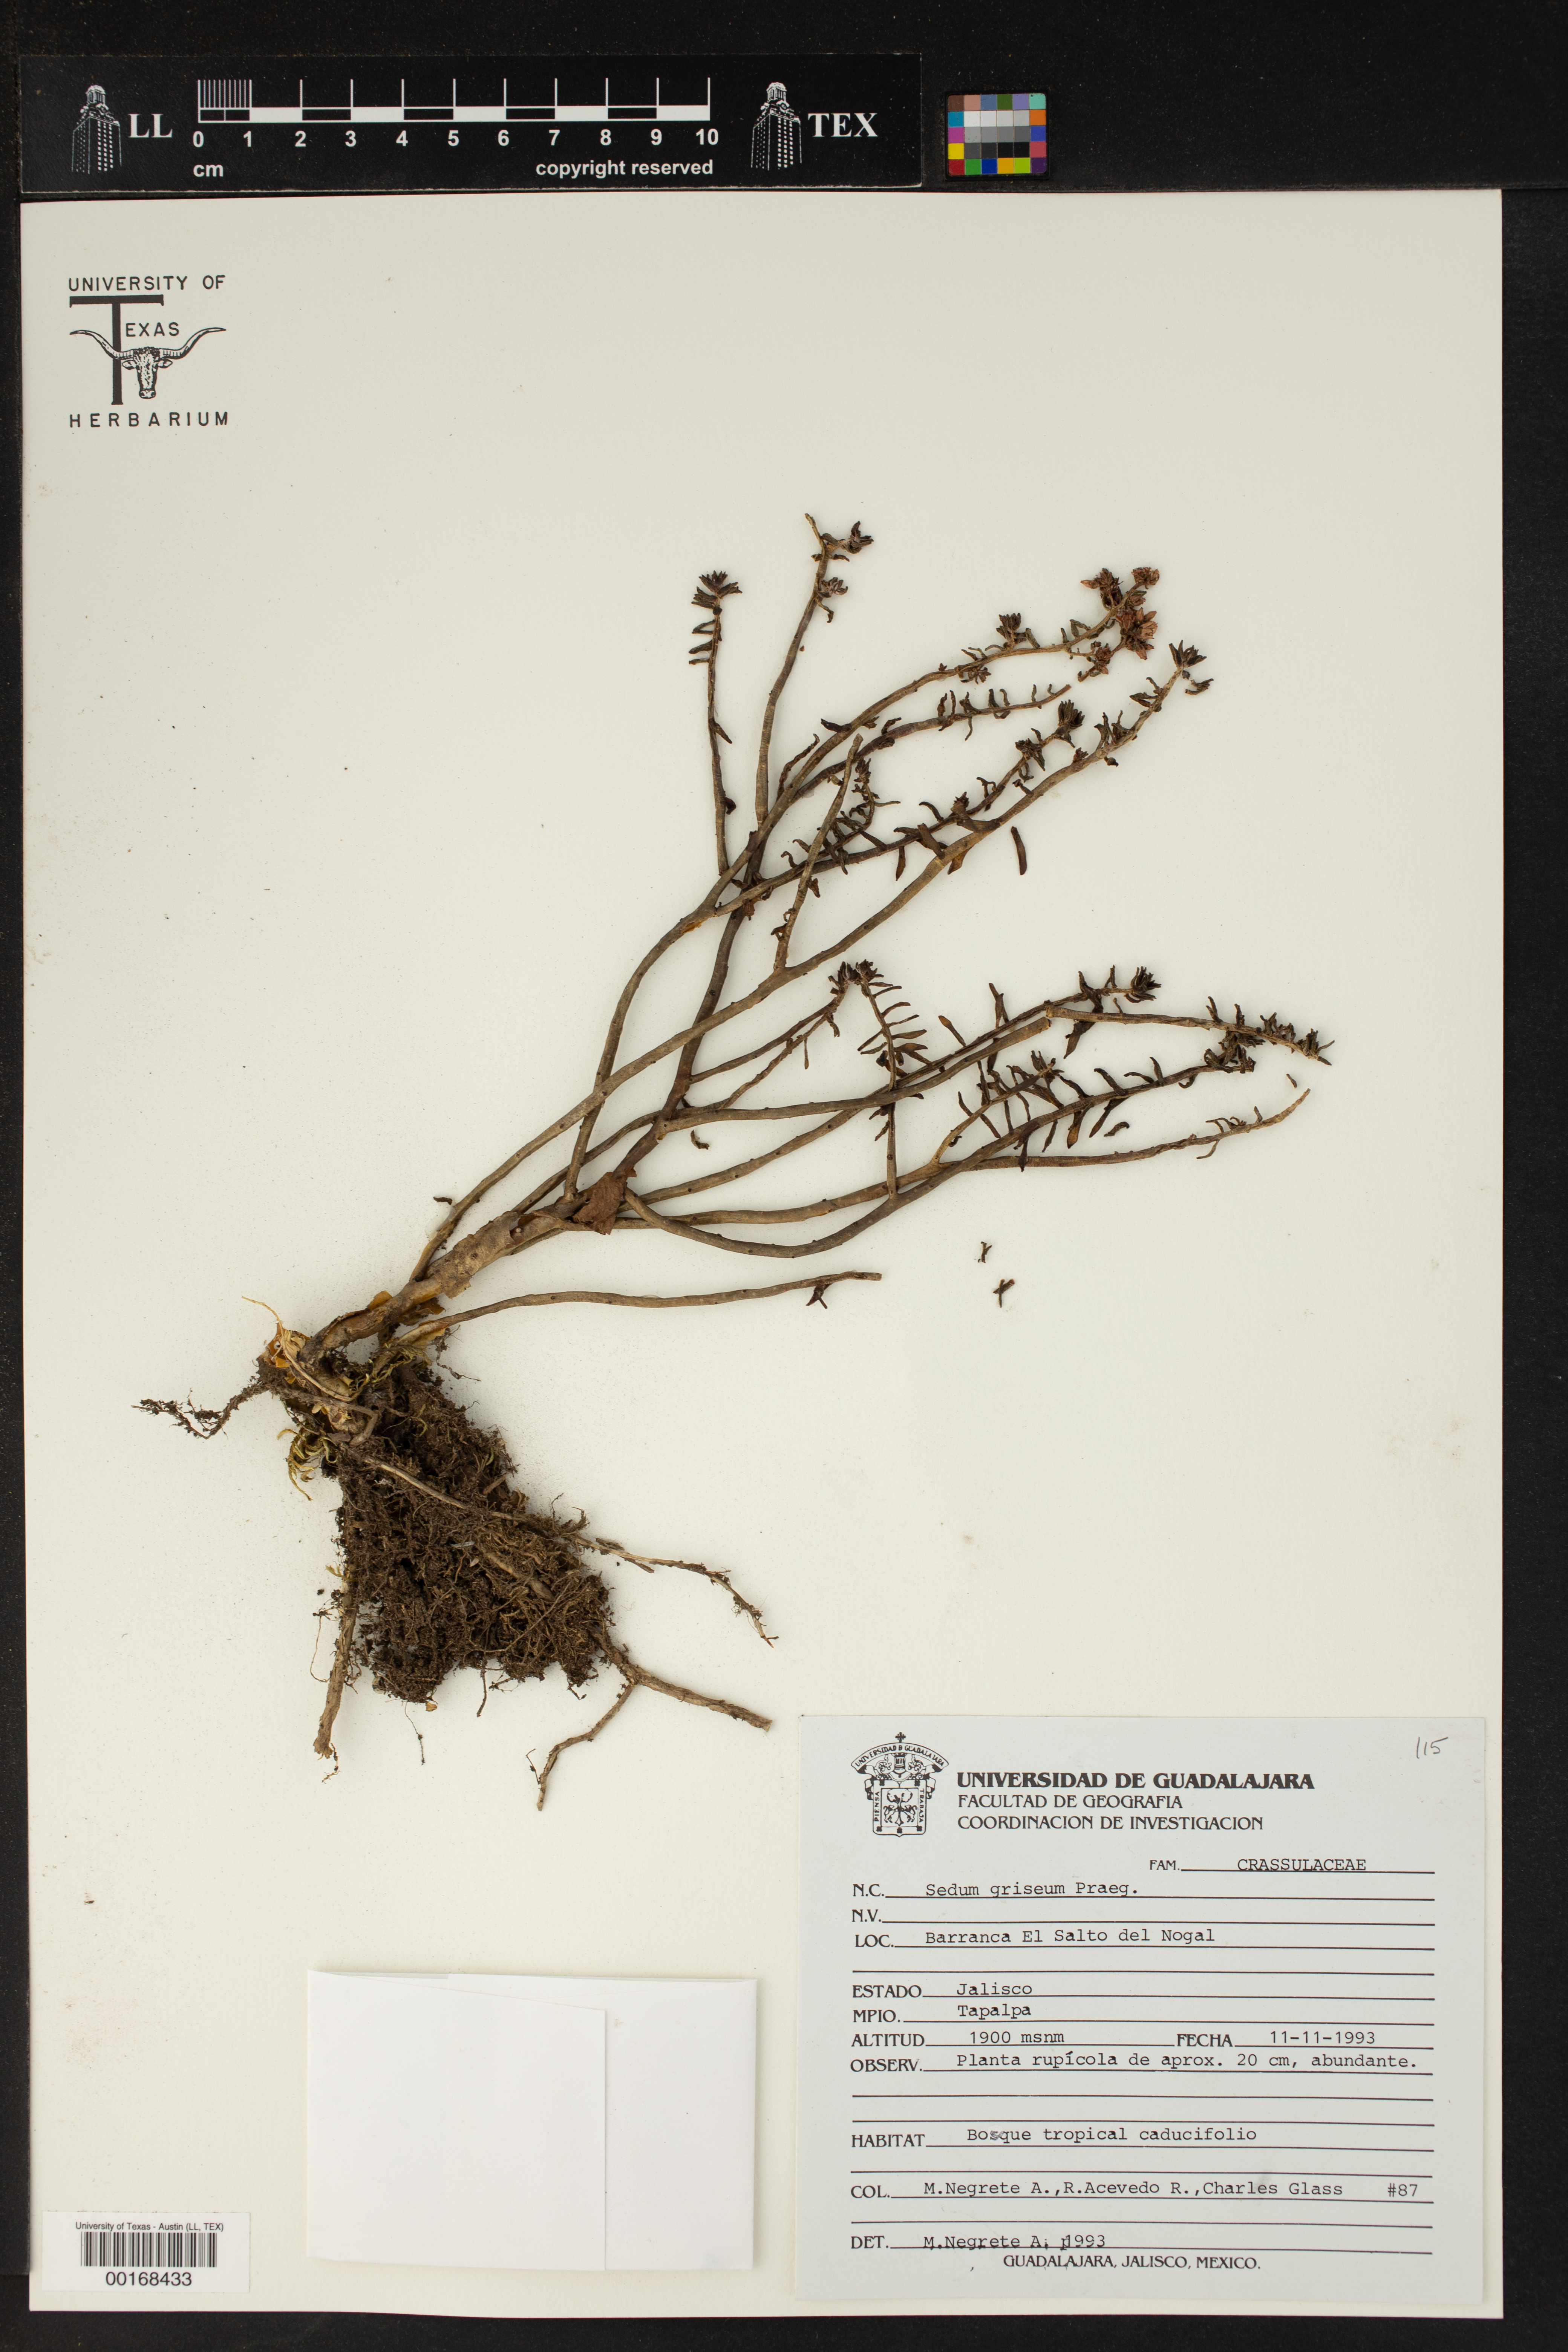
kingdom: Plantae
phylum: Tracheophyta
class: Magnoliopsida
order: Saxifragales
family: Crassulaceae
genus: Sedum
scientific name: Sedum griseum
